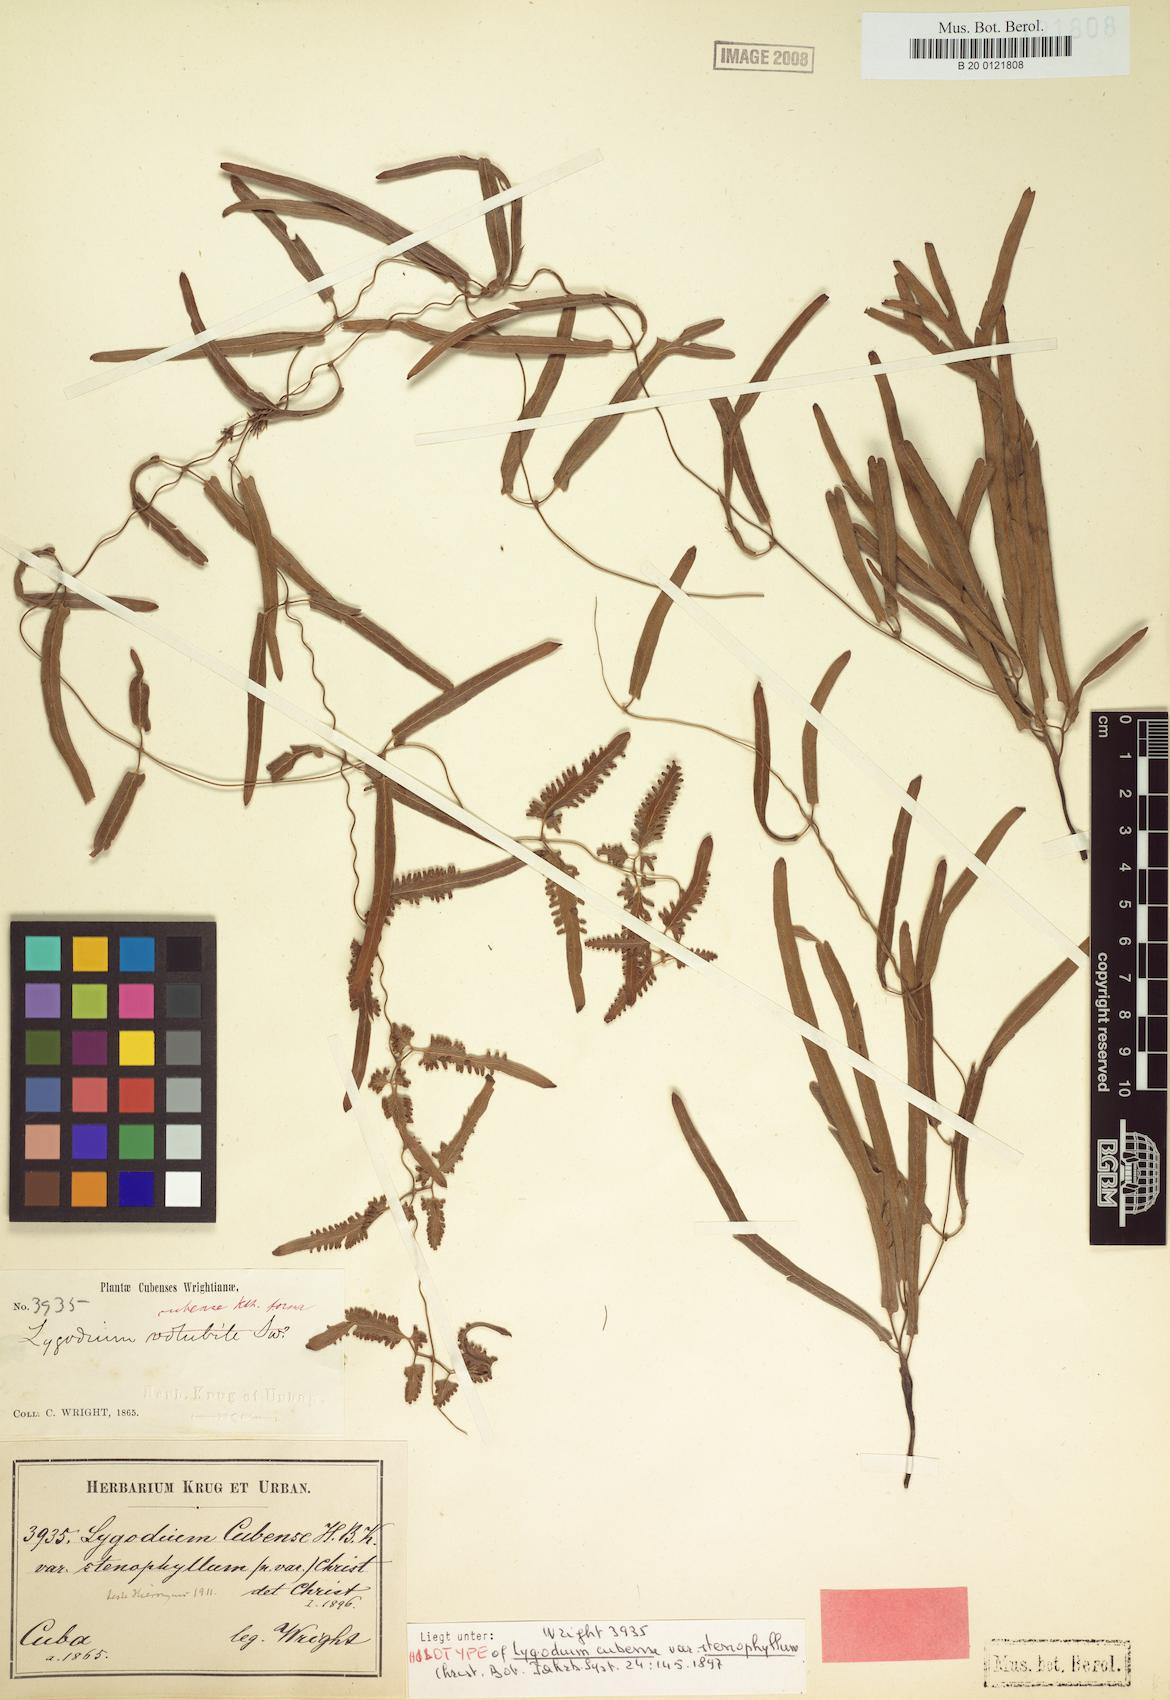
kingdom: Plantae
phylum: Tracheophyta
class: Polypodiopsida
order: Schizaeales
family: Lygodiaceae
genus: Lygodium
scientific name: Lygodium cubense
